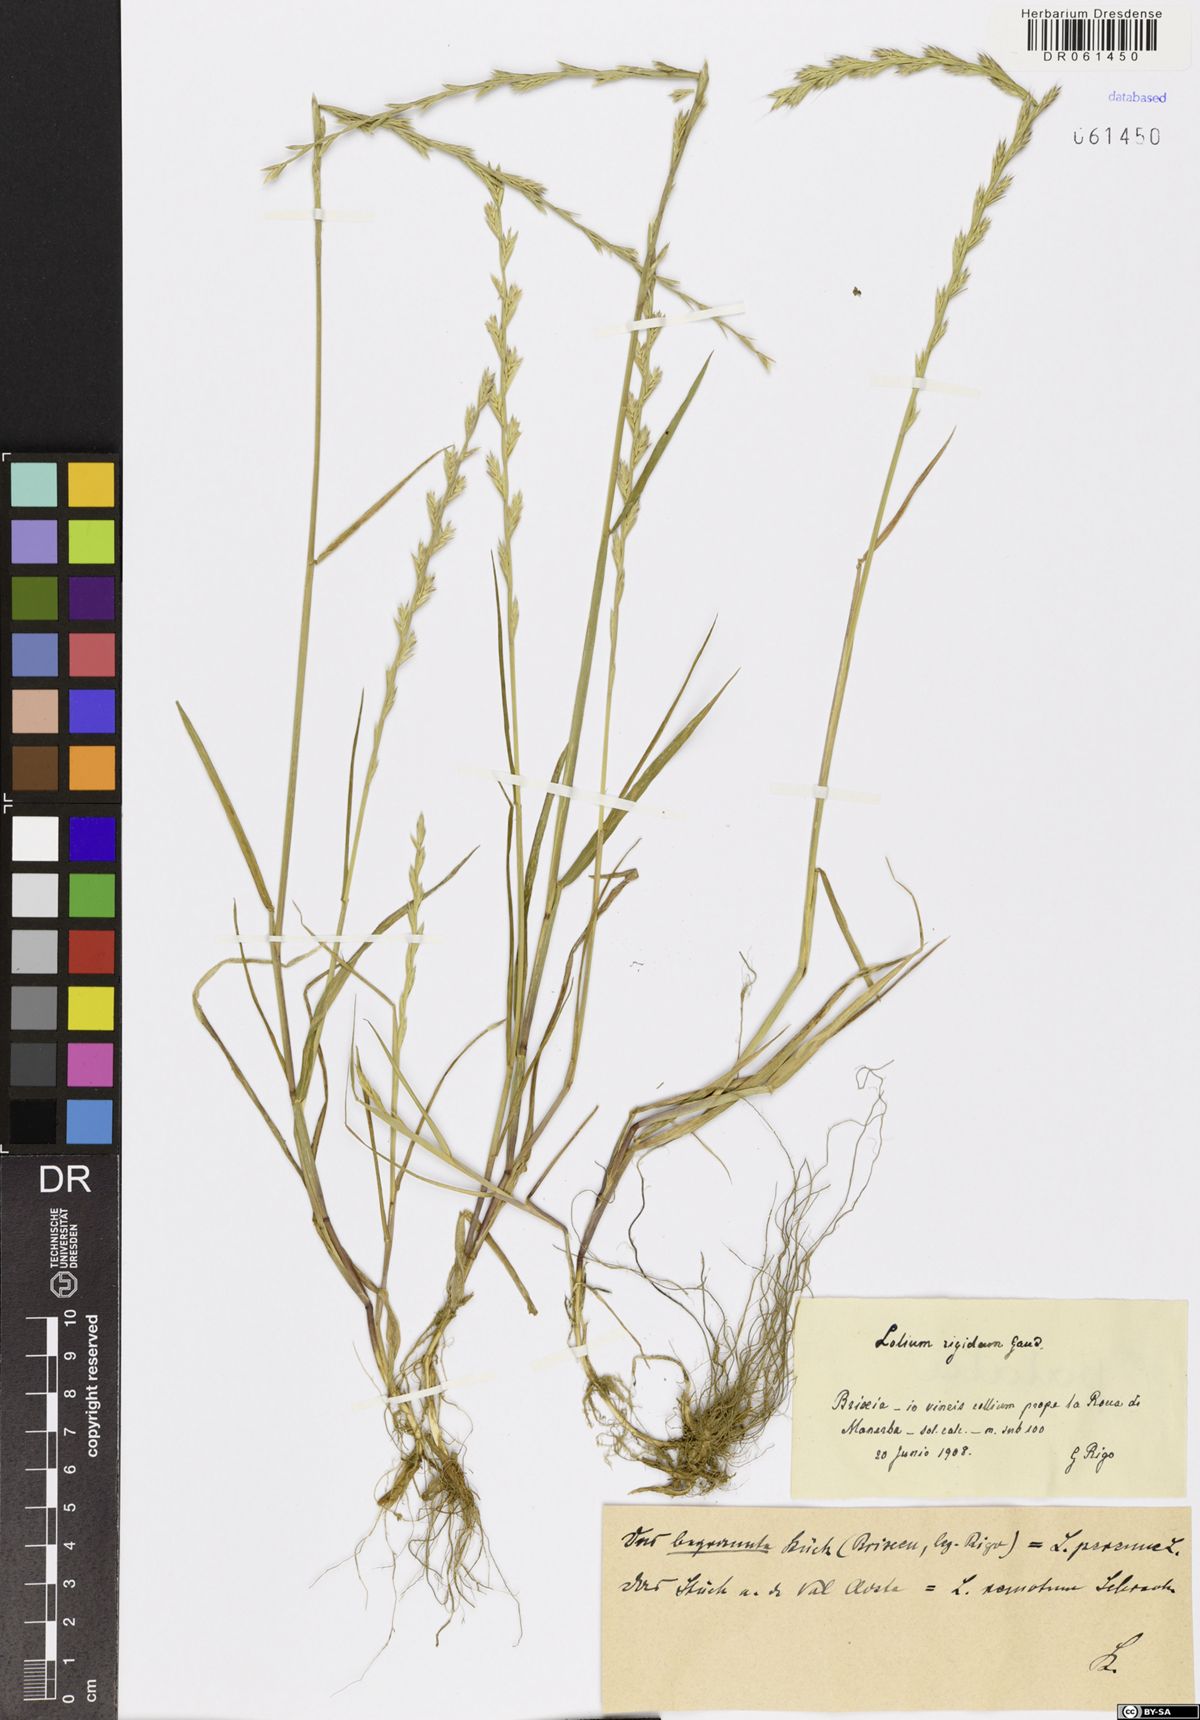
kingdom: Plantae
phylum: Tracheophyta
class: Liliopsida
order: Poales
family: Poaceae
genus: Lolium
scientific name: Lolium perenne
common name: Perennial ryegrass
